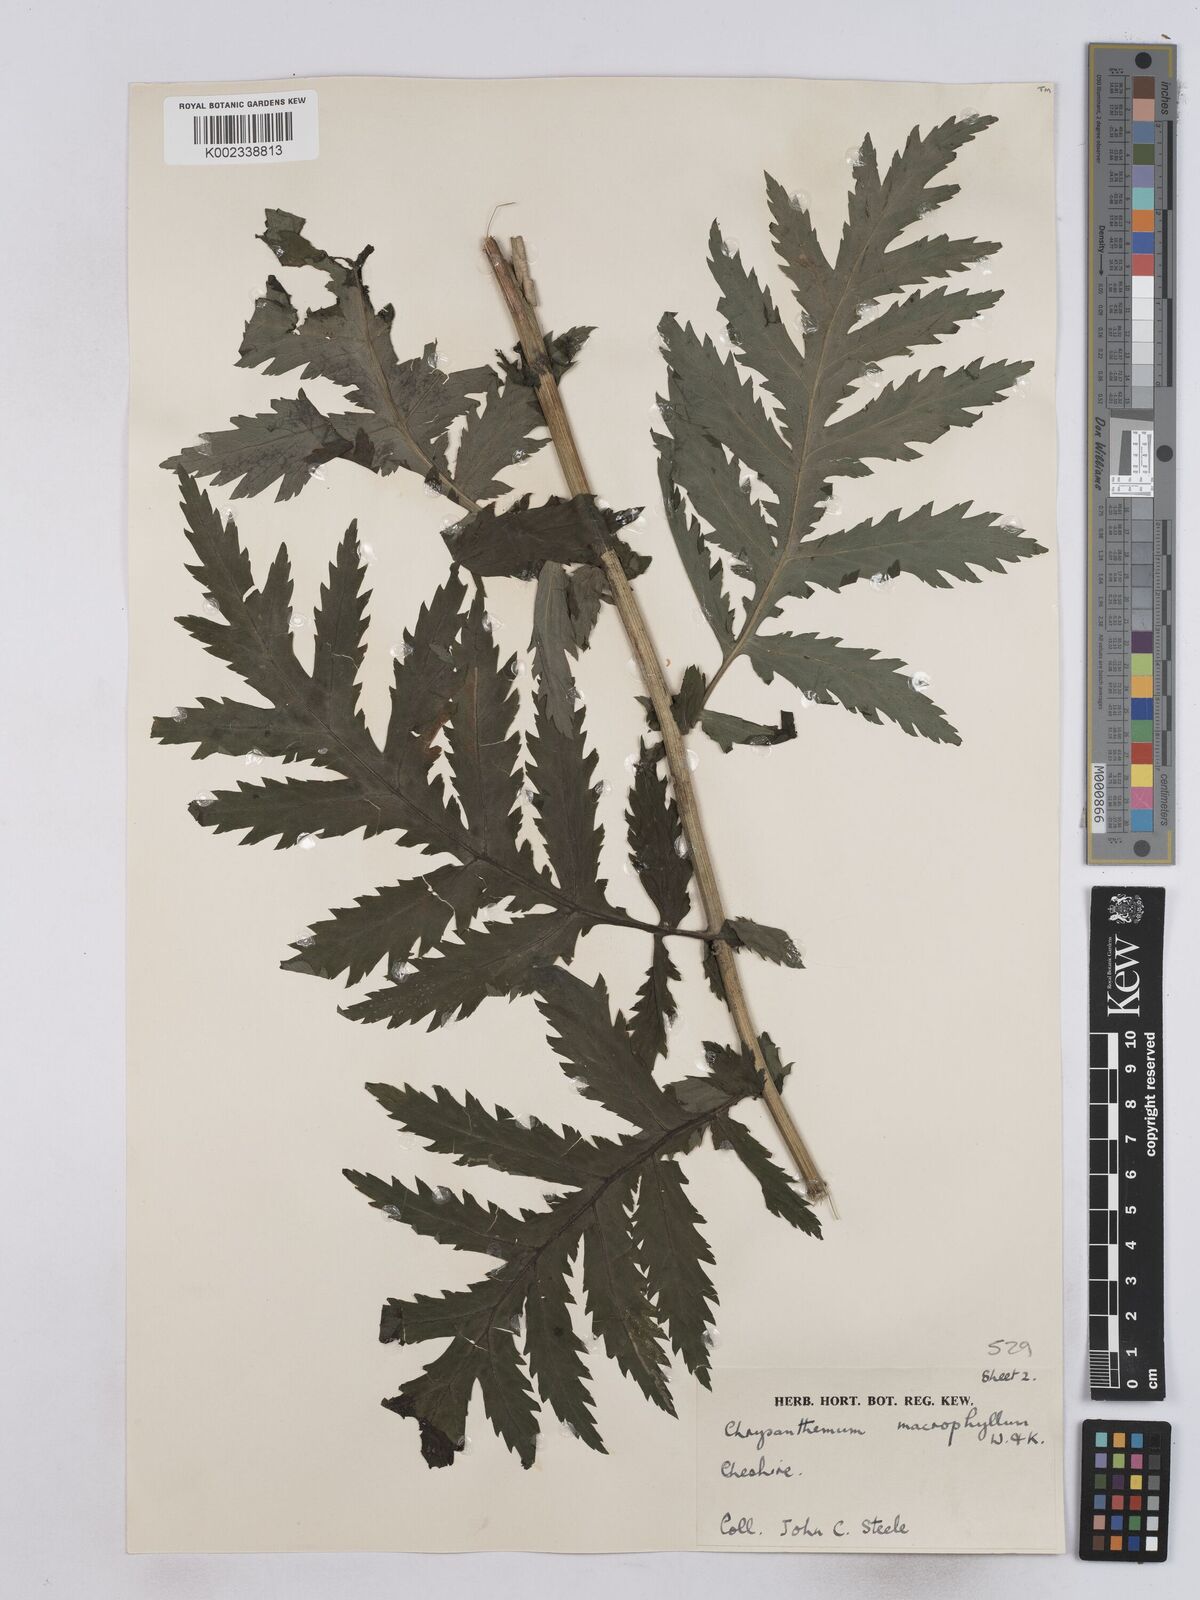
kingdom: Plantae
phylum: Tracheophyta
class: Magnoliopsida
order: Asterales
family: Asteraceae
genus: Tanacetum
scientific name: Tanacetum macrophyllum
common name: Rayed tansy
